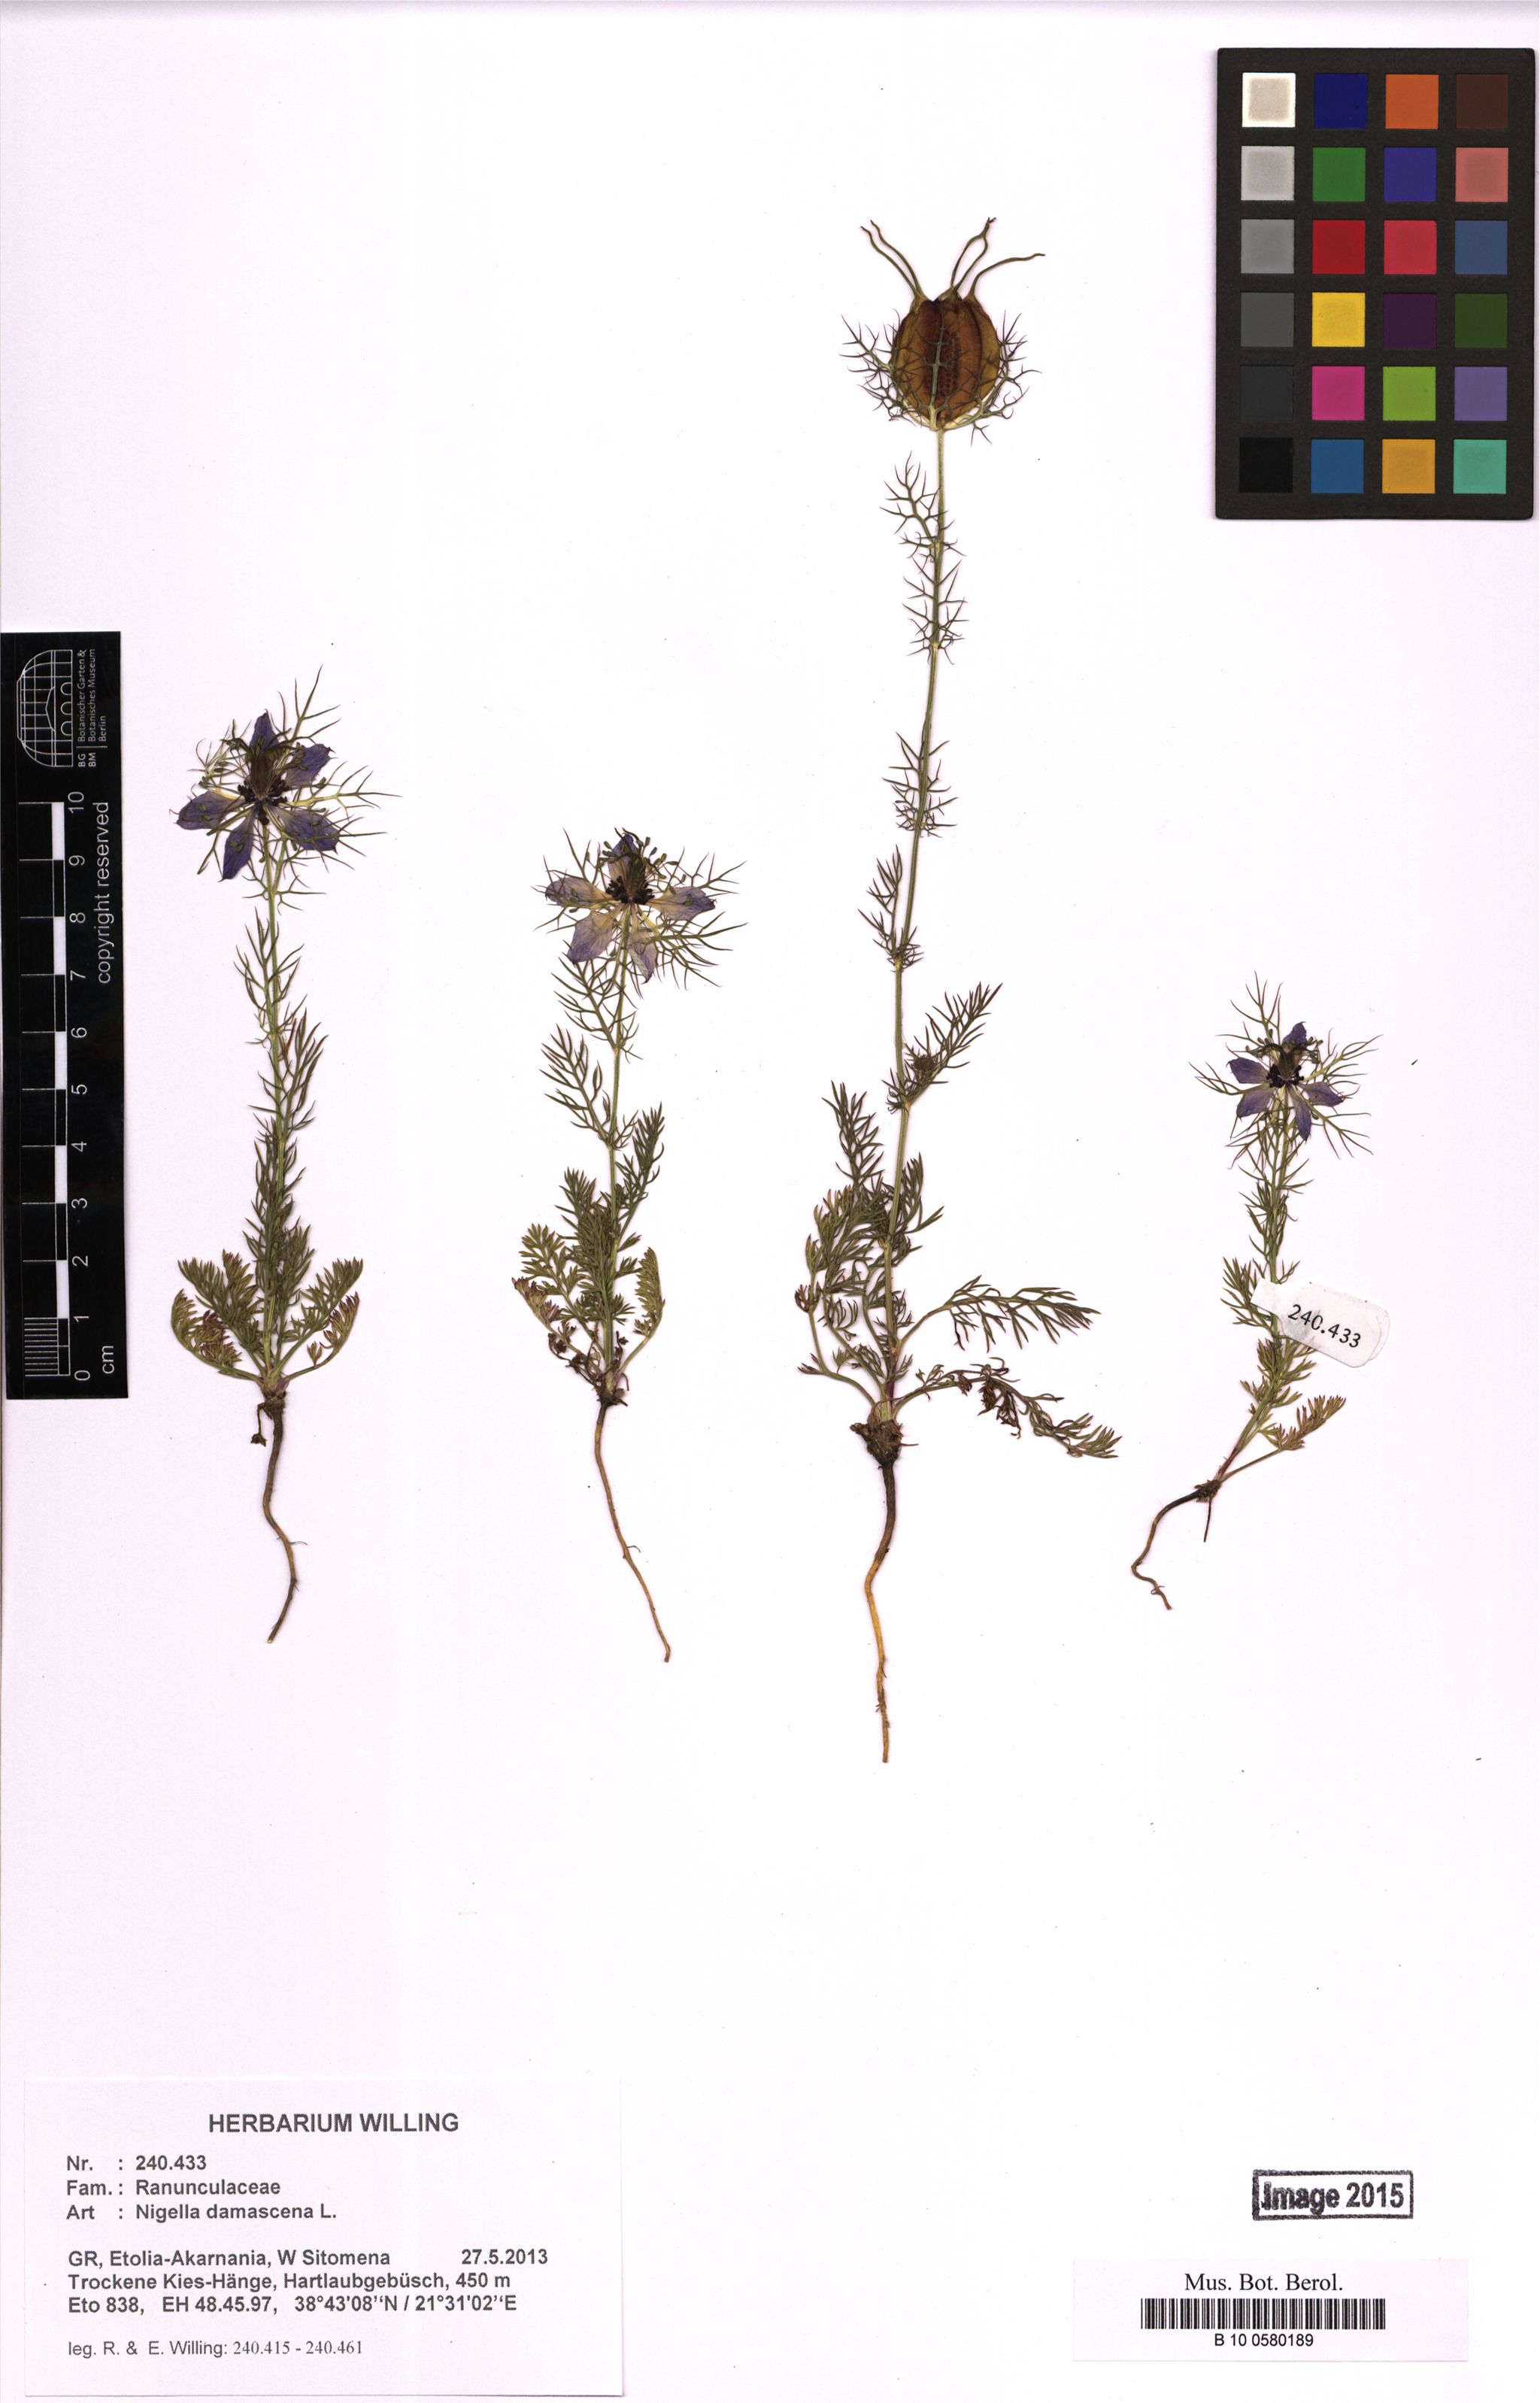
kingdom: Plantae
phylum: Tracheophyta
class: Magnoliopsida
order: Ranunculales
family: Ranunculaceae
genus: Nigella
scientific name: Nigella damascena
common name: Love-in-a-mist
